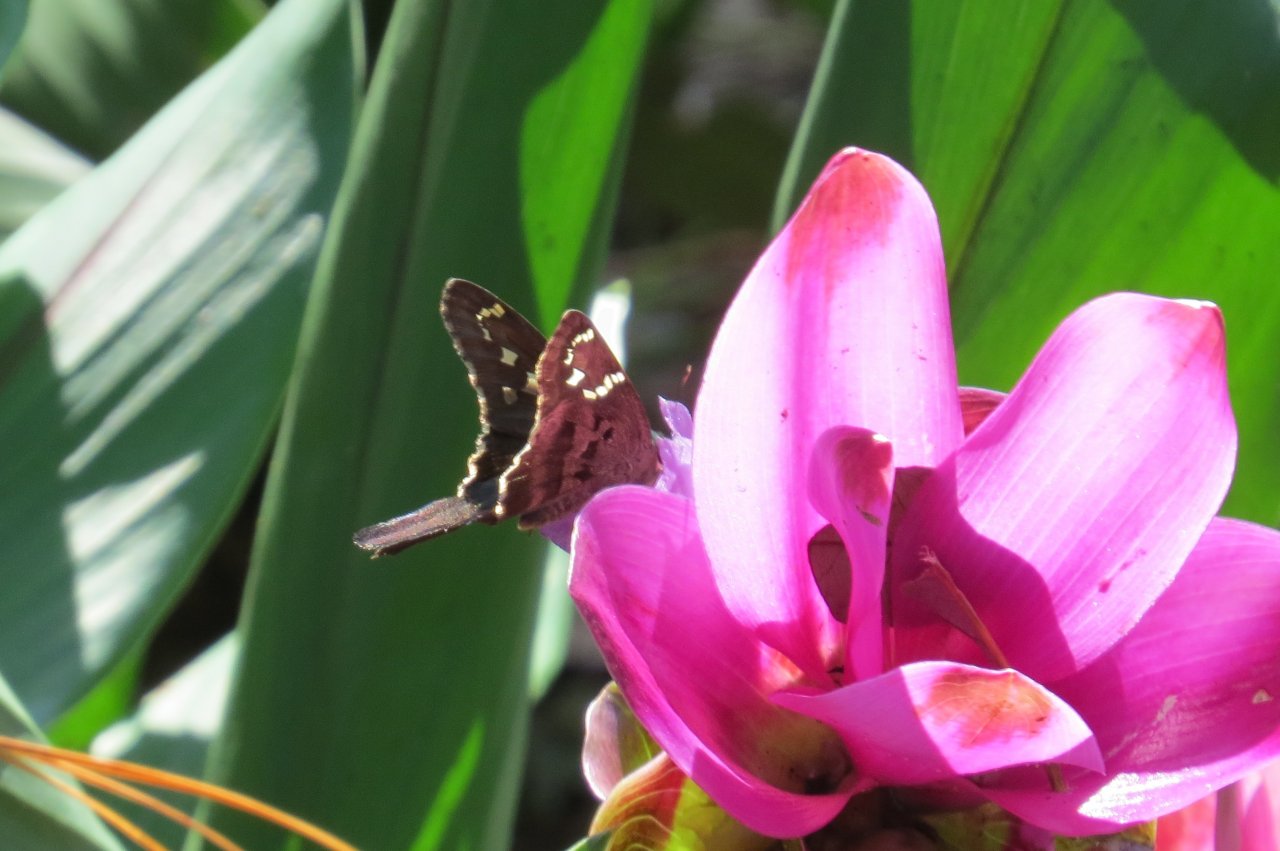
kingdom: Animalia
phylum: Arthropoda
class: Insecta
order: Lepidoptera
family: Hesperiidae
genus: Urbanus
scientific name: Urbanus proteus
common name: Long-tailed Skipper
